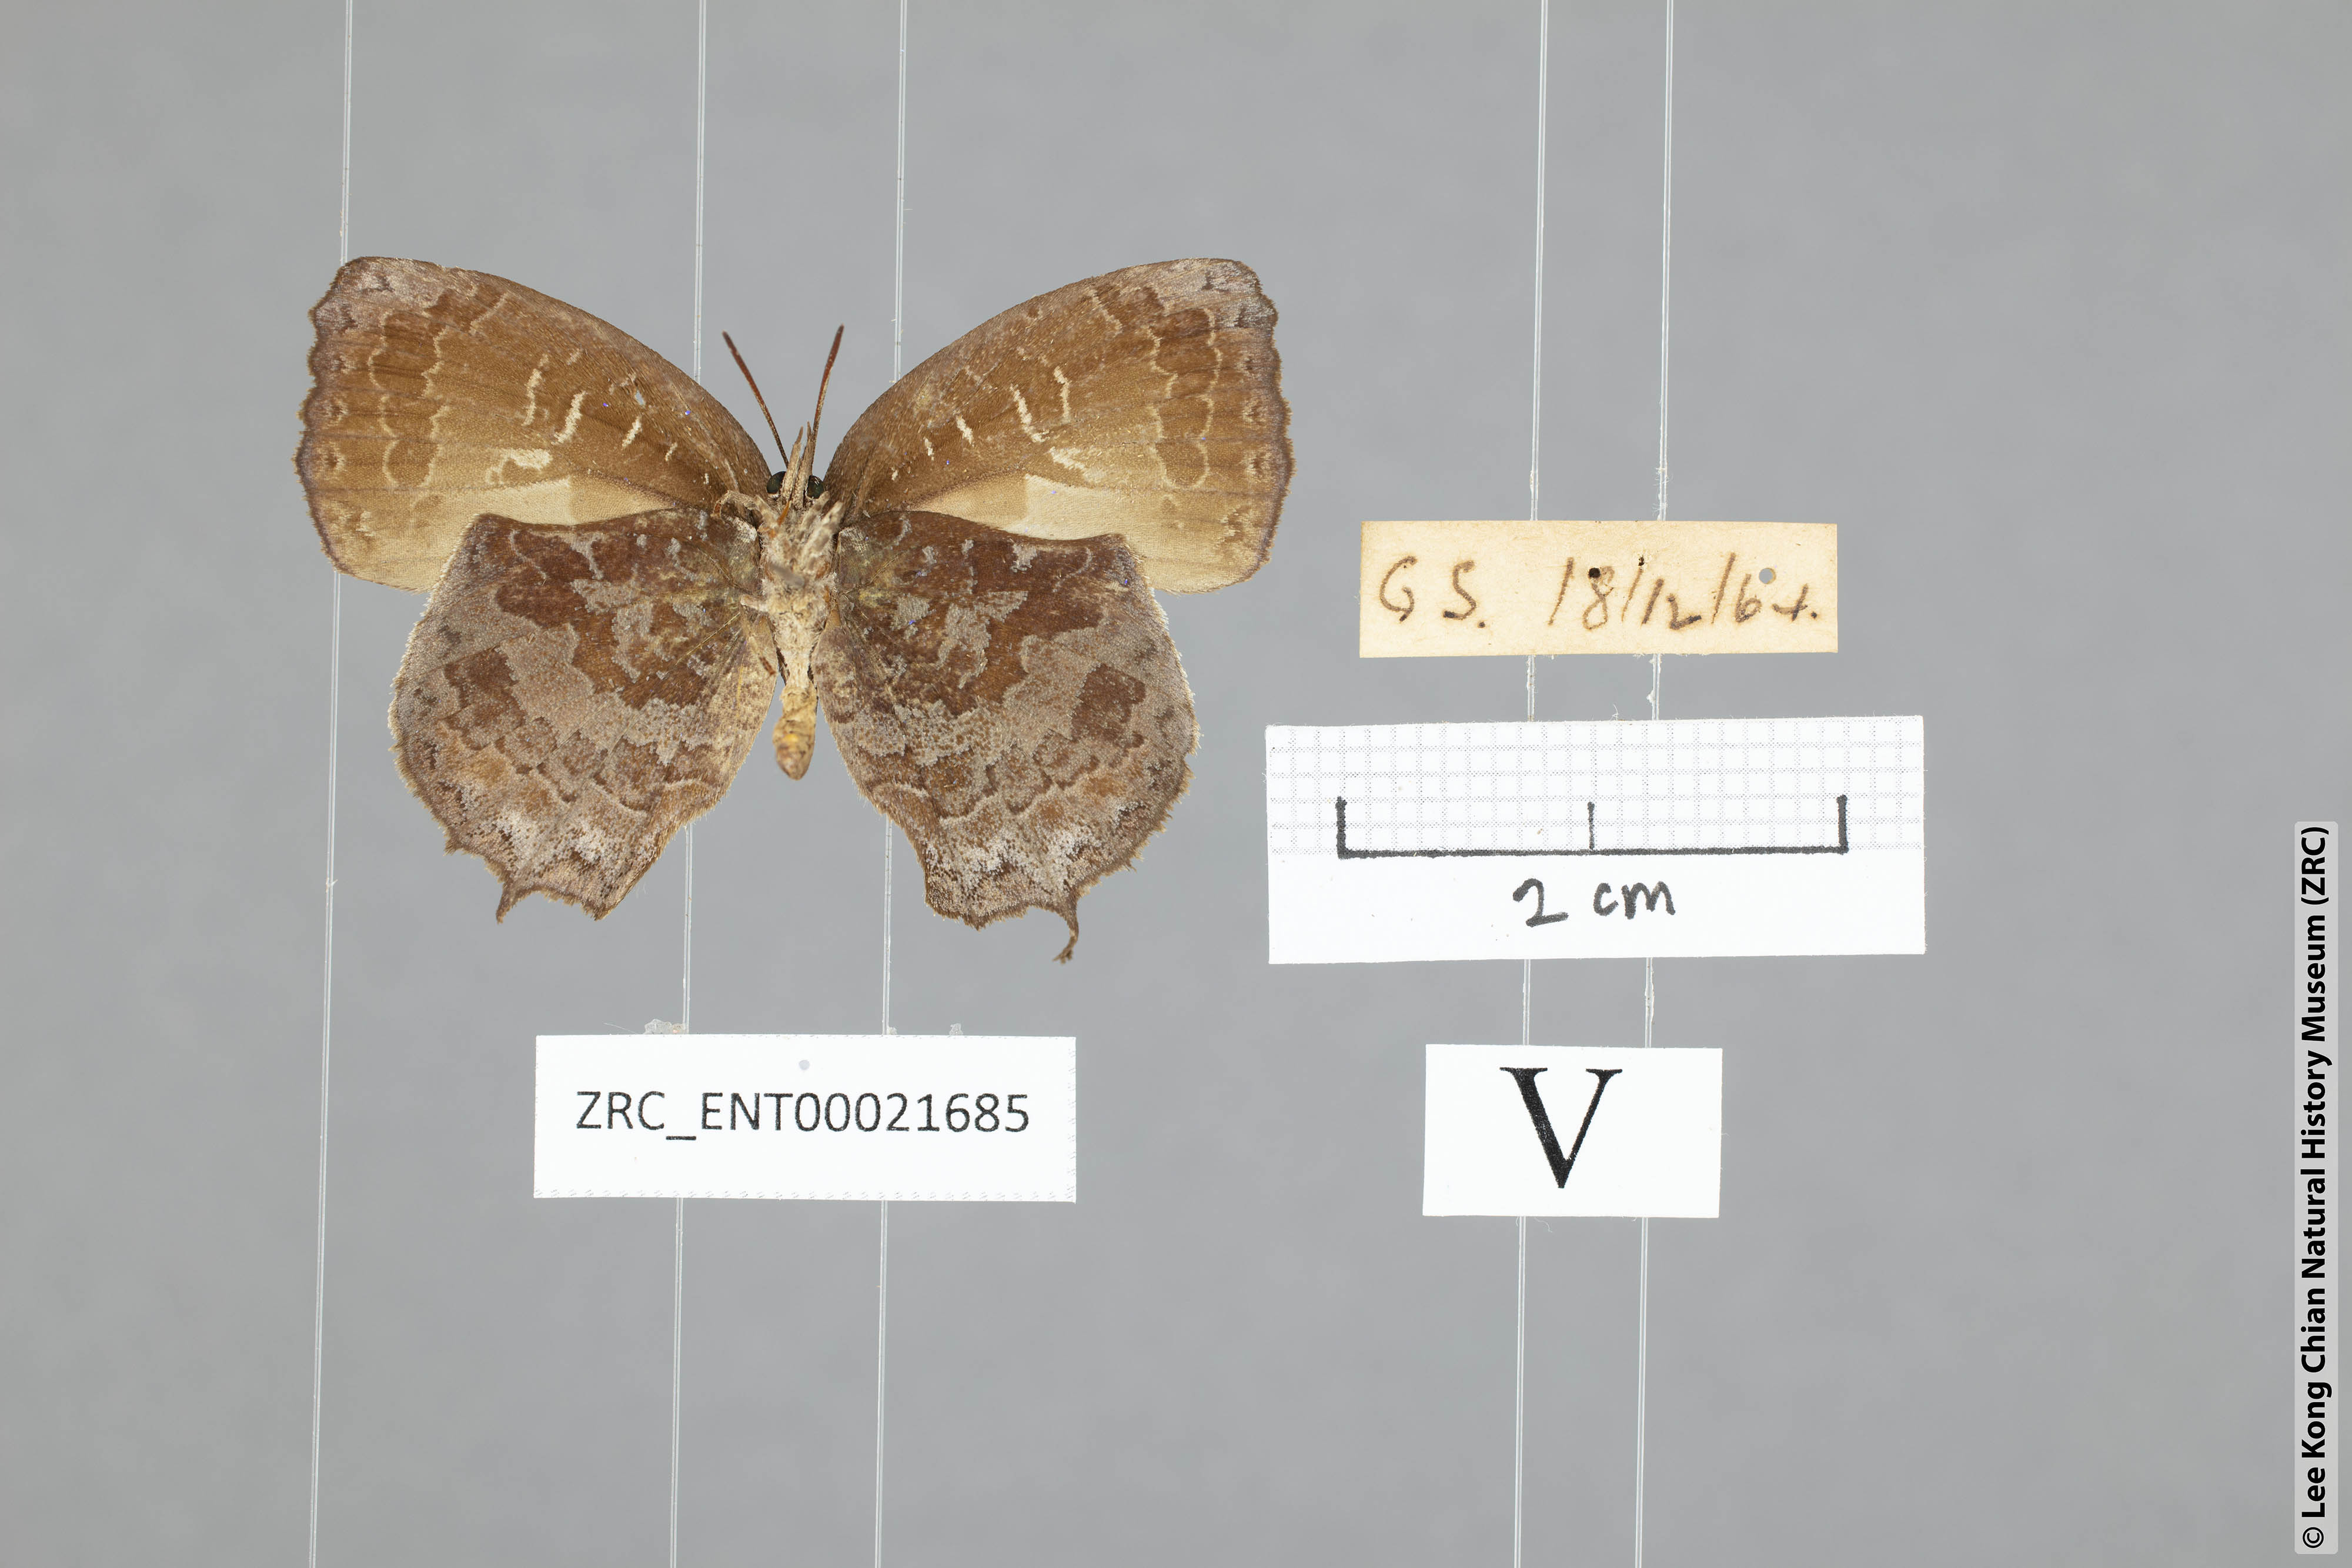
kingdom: Animalia
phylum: Arthropoda
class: Insecta
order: Lepidoptera
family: Lycaenidae
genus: Mahathala
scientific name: Mahathala ameria
